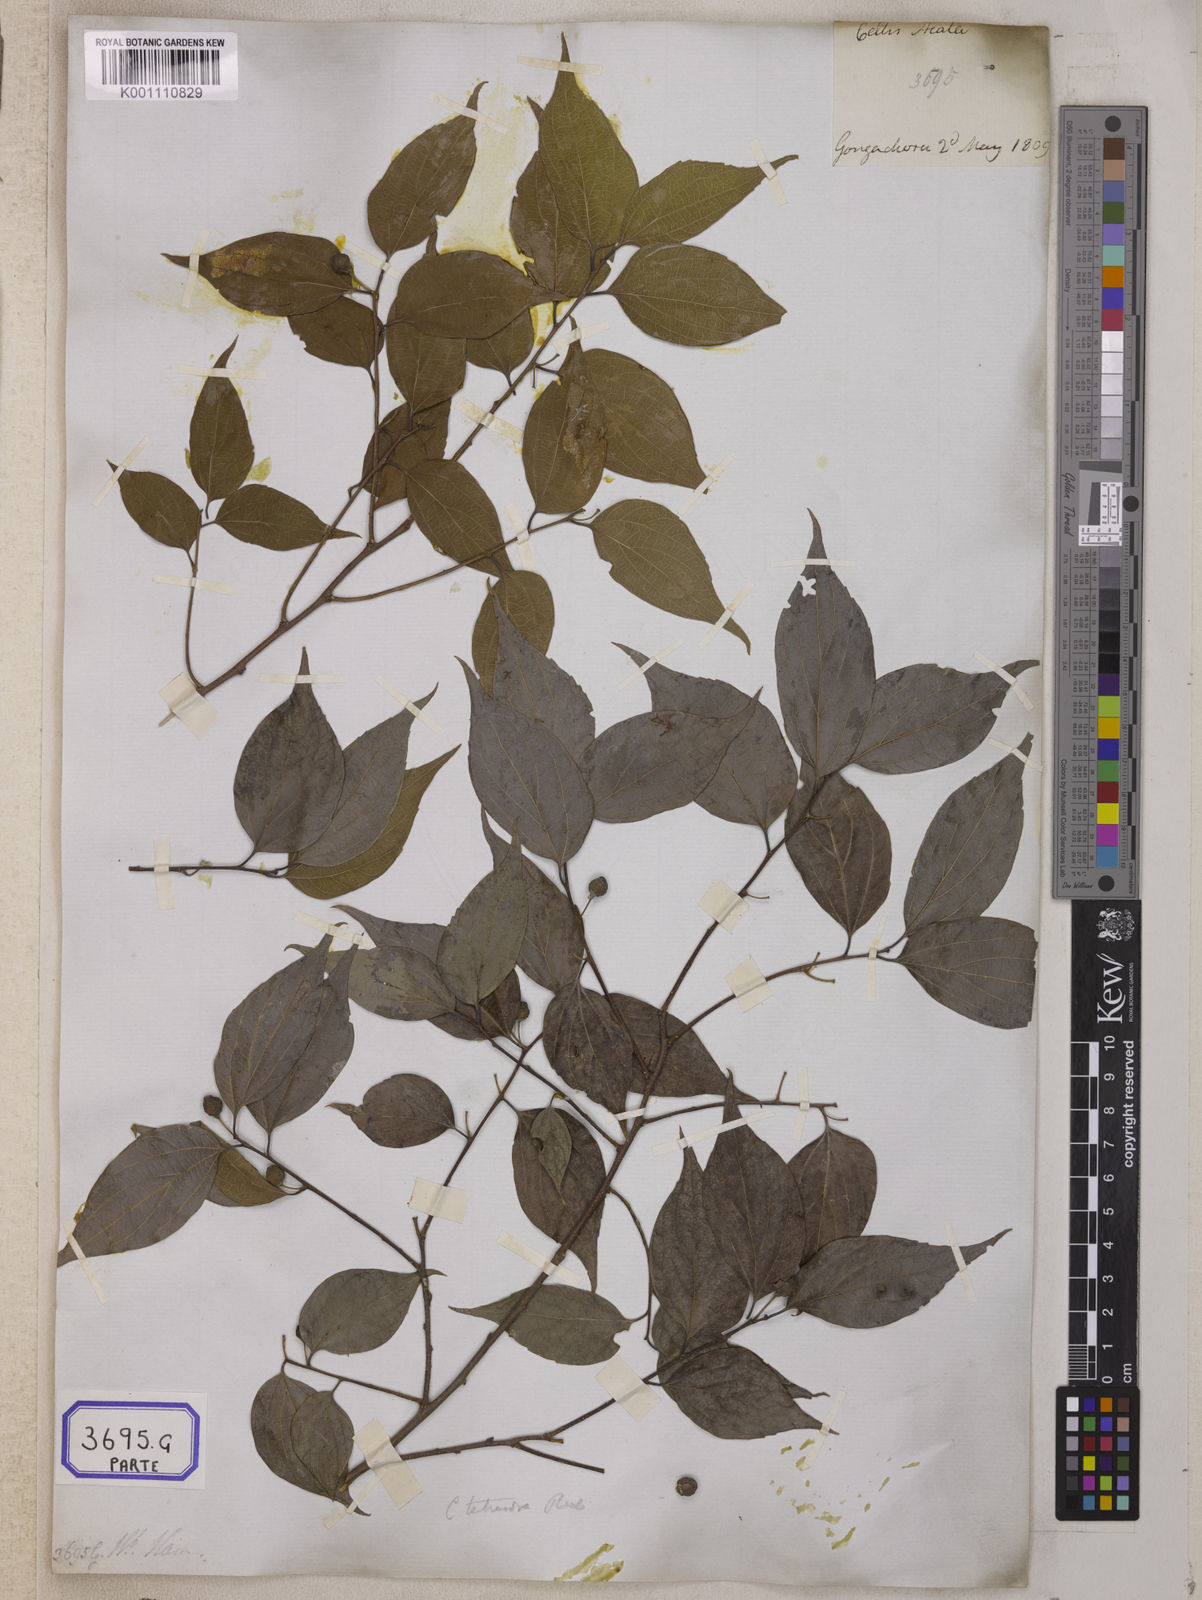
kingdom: Plantae
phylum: Tracheophyta
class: Magnoliopsida
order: Rosales
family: Cannabaceae
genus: Celtis
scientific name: Celtis
